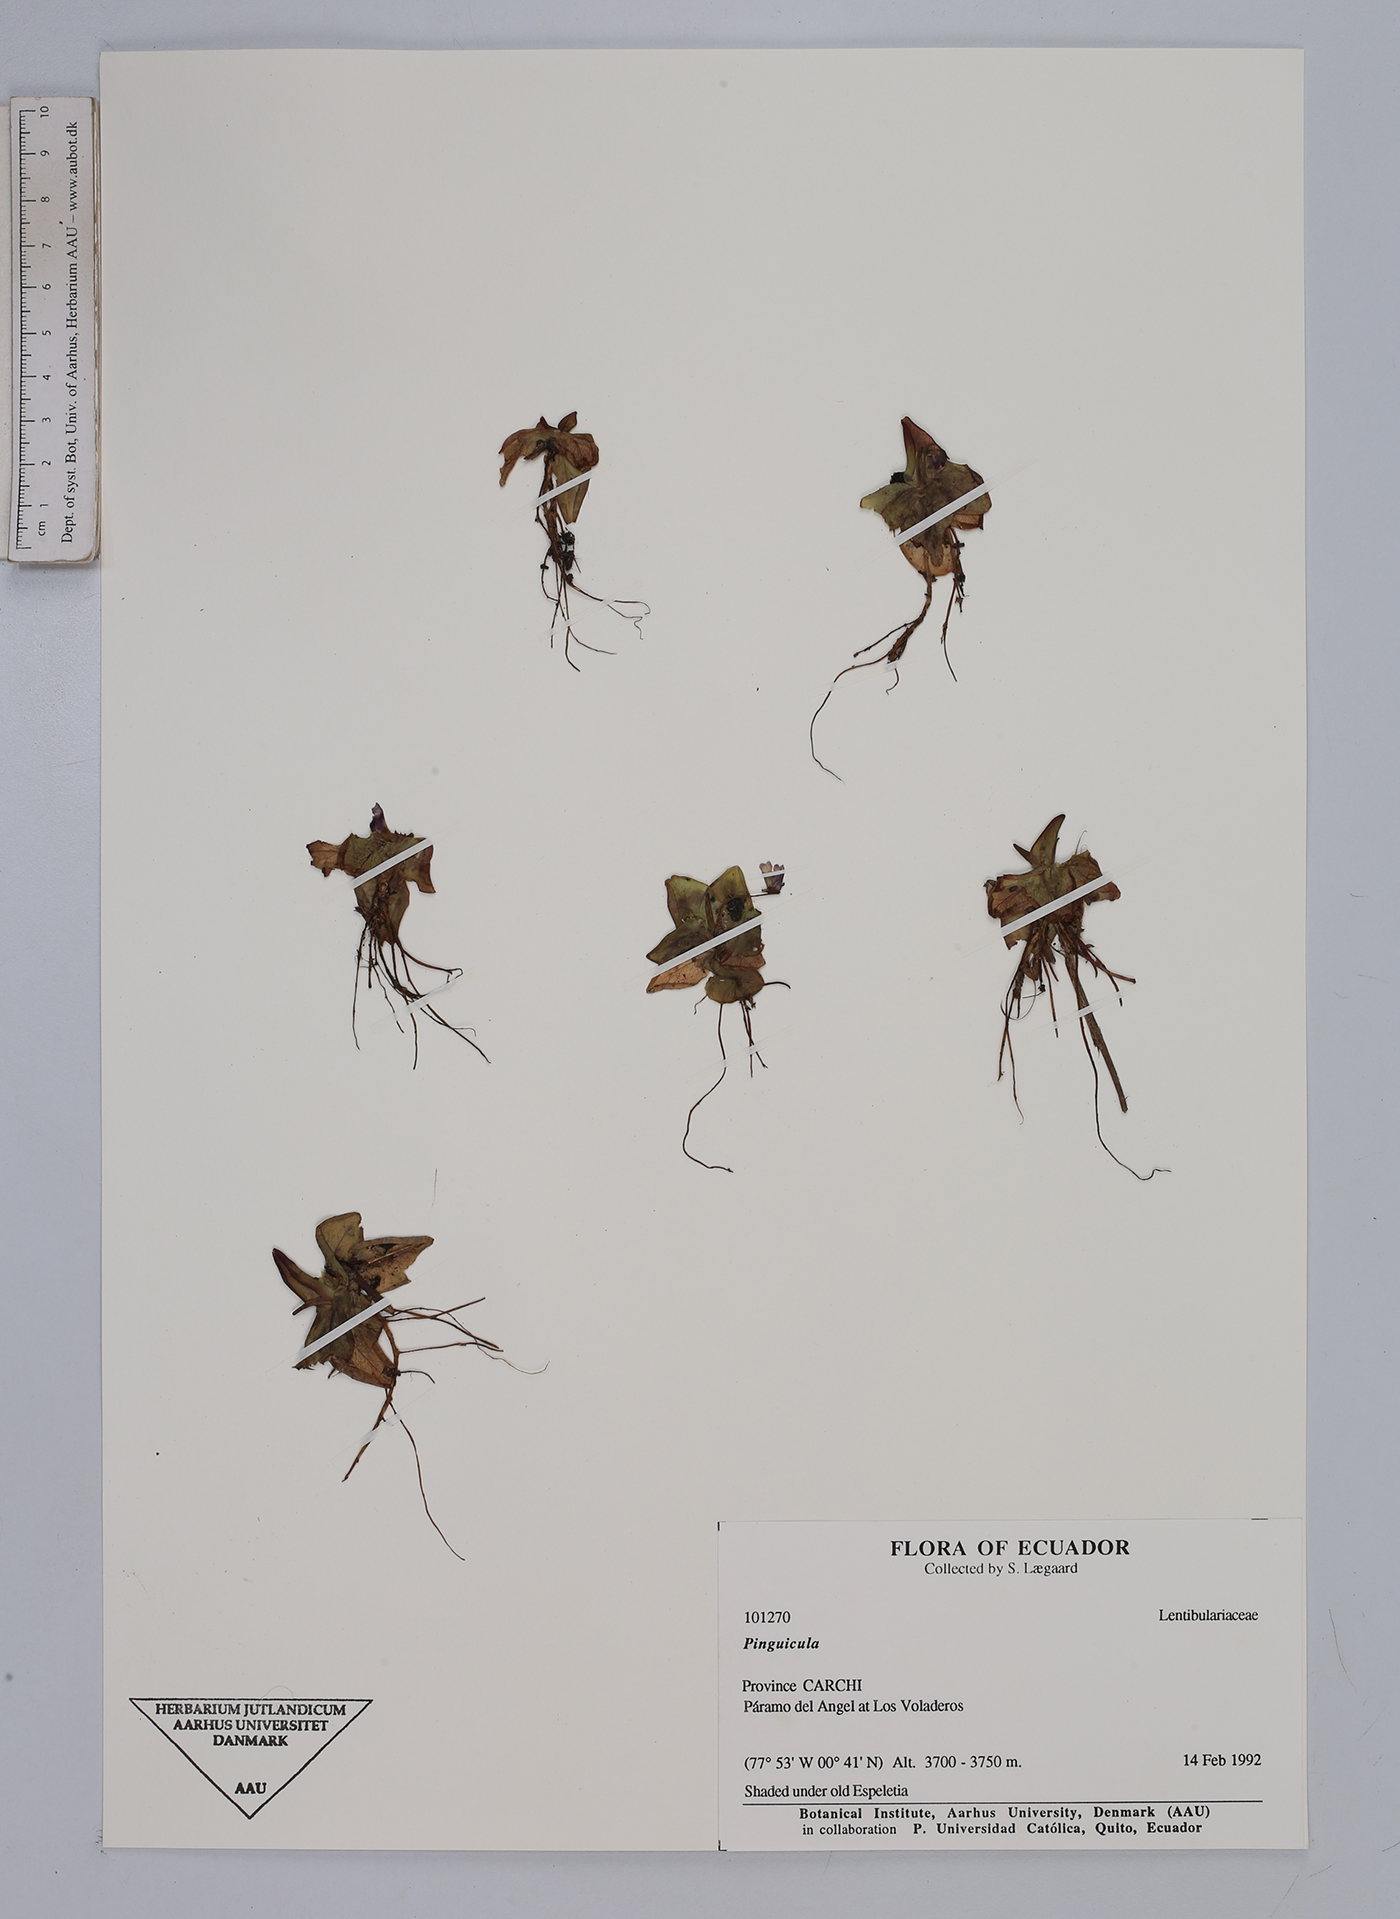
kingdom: Plantae
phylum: Tracheophyta
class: Magnoliopsida
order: Lamiales
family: Lentibulariaceae
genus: Pinguicula
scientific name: Pinguicula
